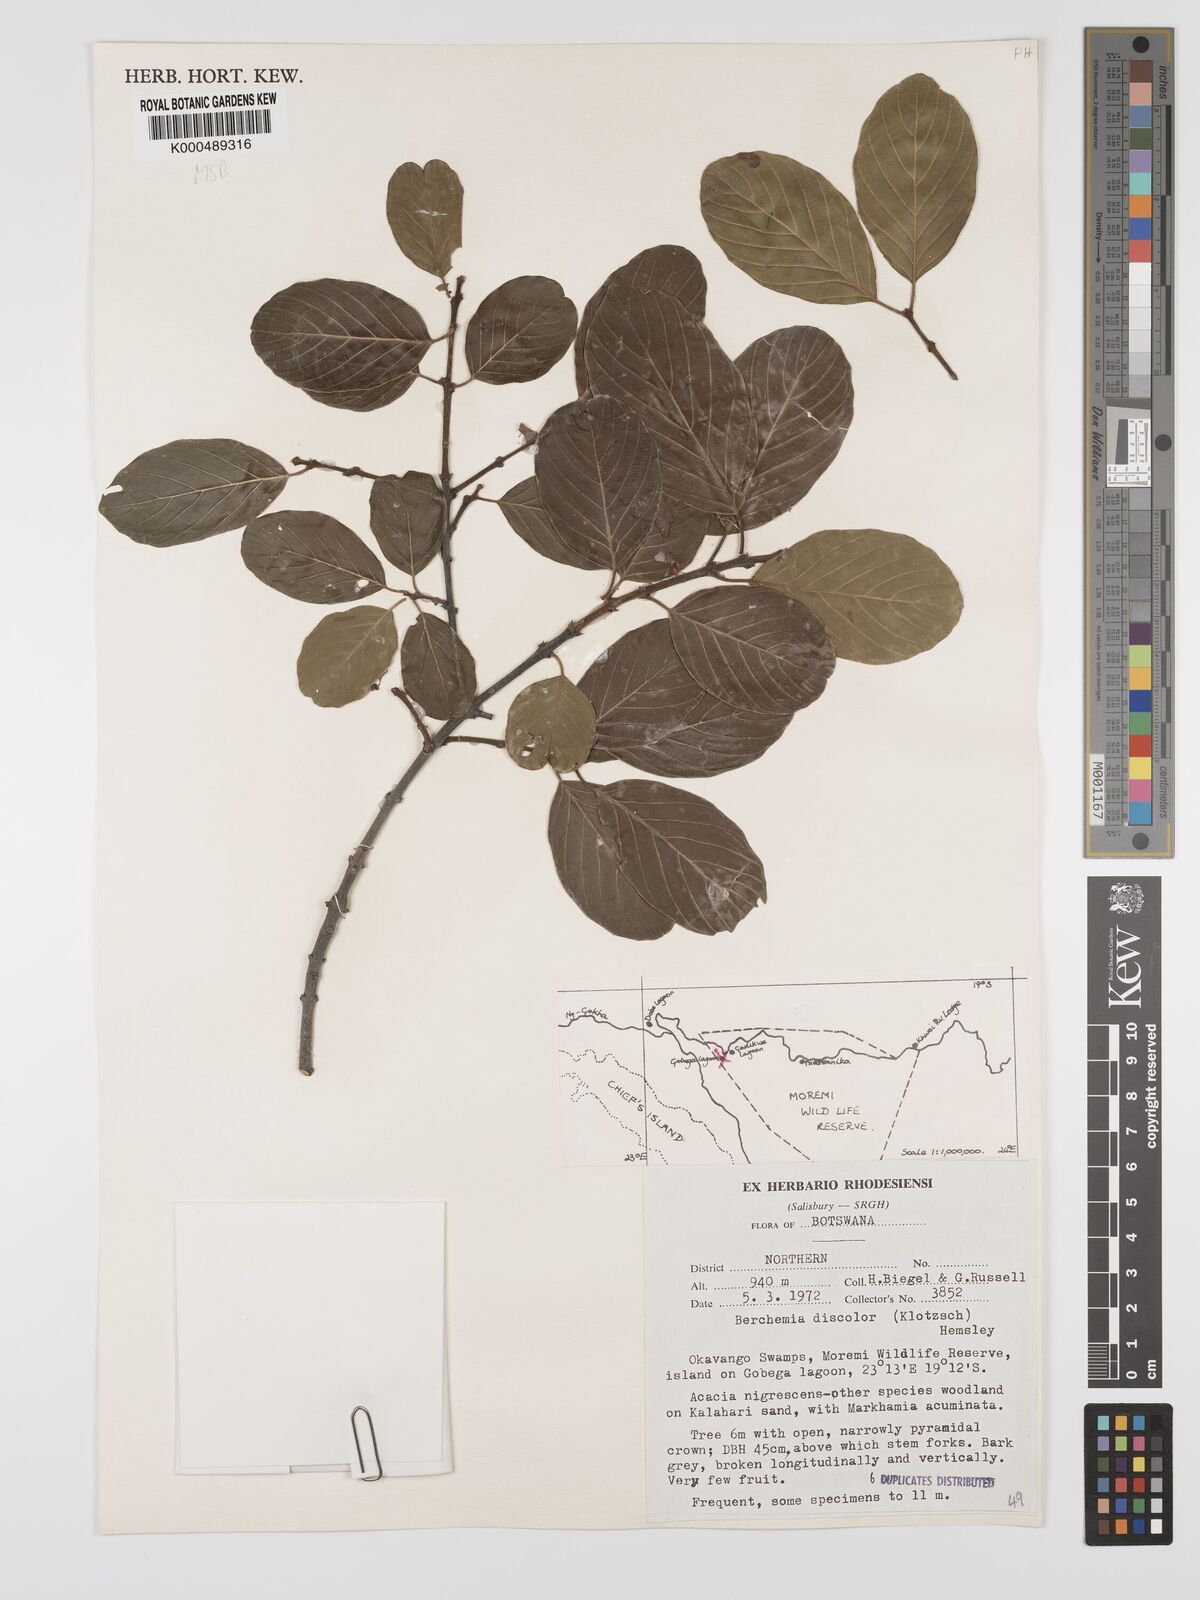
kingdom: Plantae
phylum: Tracheophyta
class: Magnoliopsida
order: Rosales
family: Rhamnaceae
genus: Phyllogeiton
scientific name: Phyllogeiton discolor
